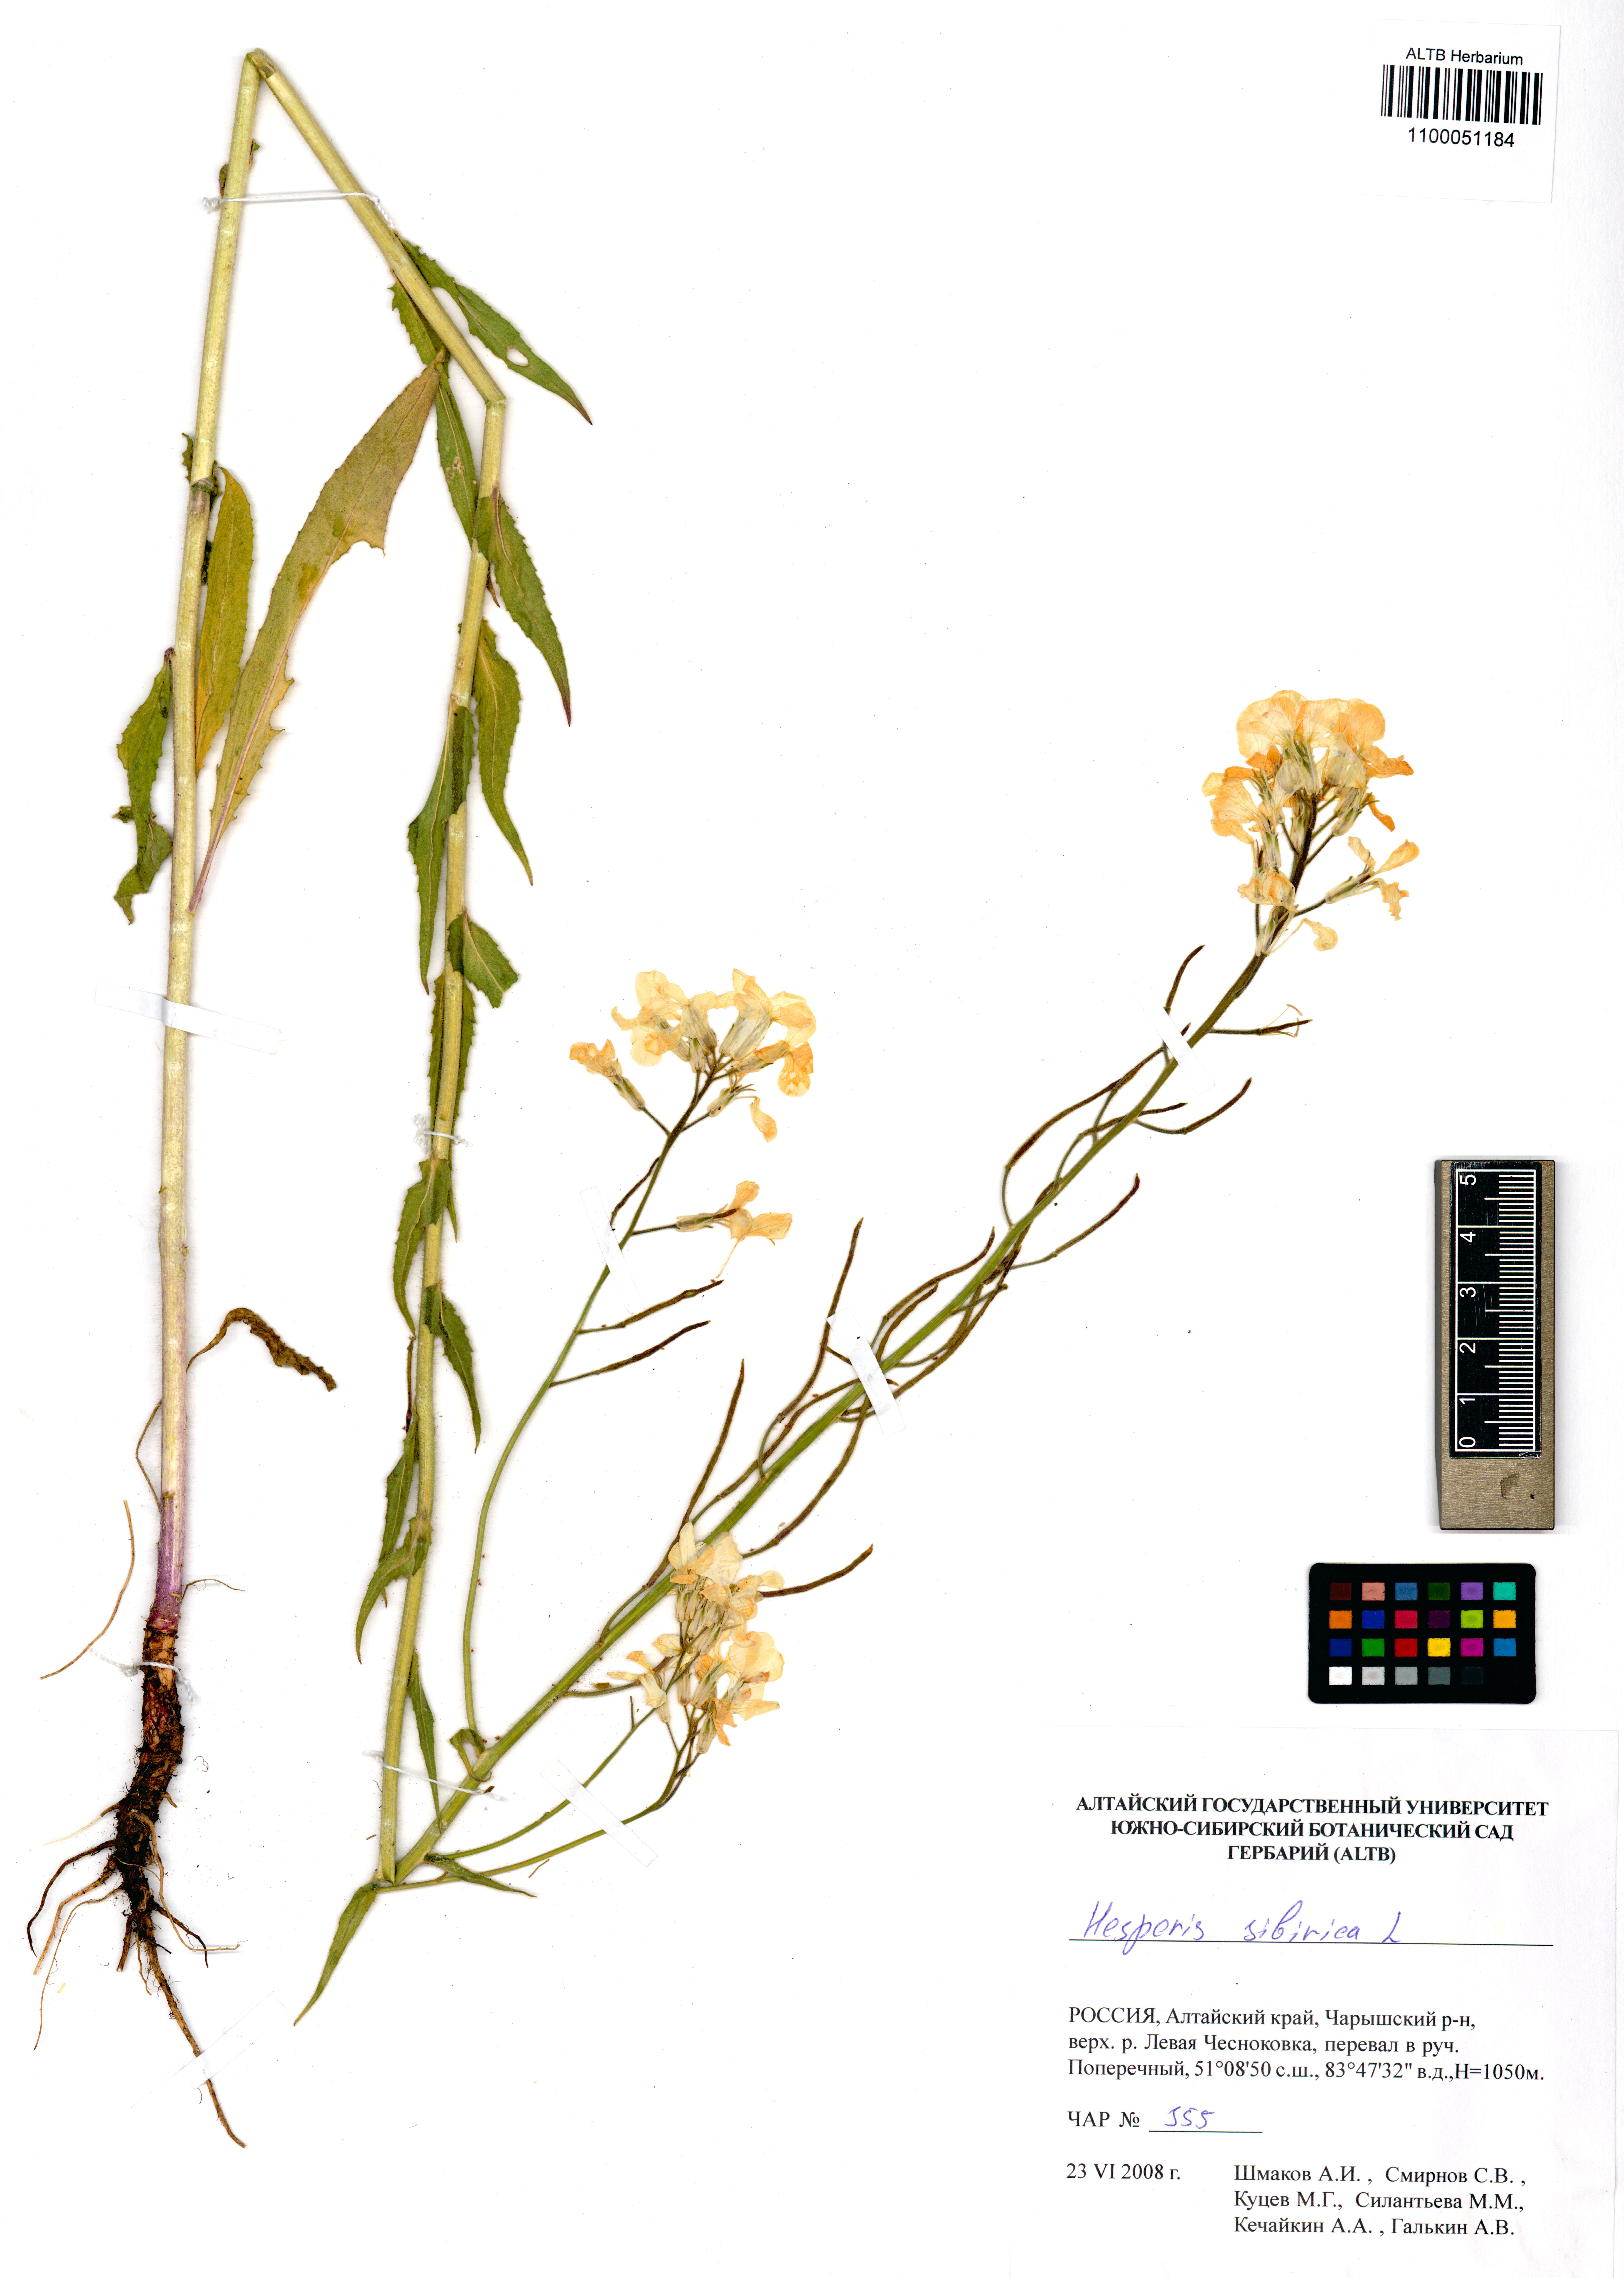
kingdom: Plantae
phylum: Tracheophyta
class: Magnoliopsida
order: Brassicales
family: Brassicaceae
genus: Hesperis
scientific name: Hesperis sibirica
